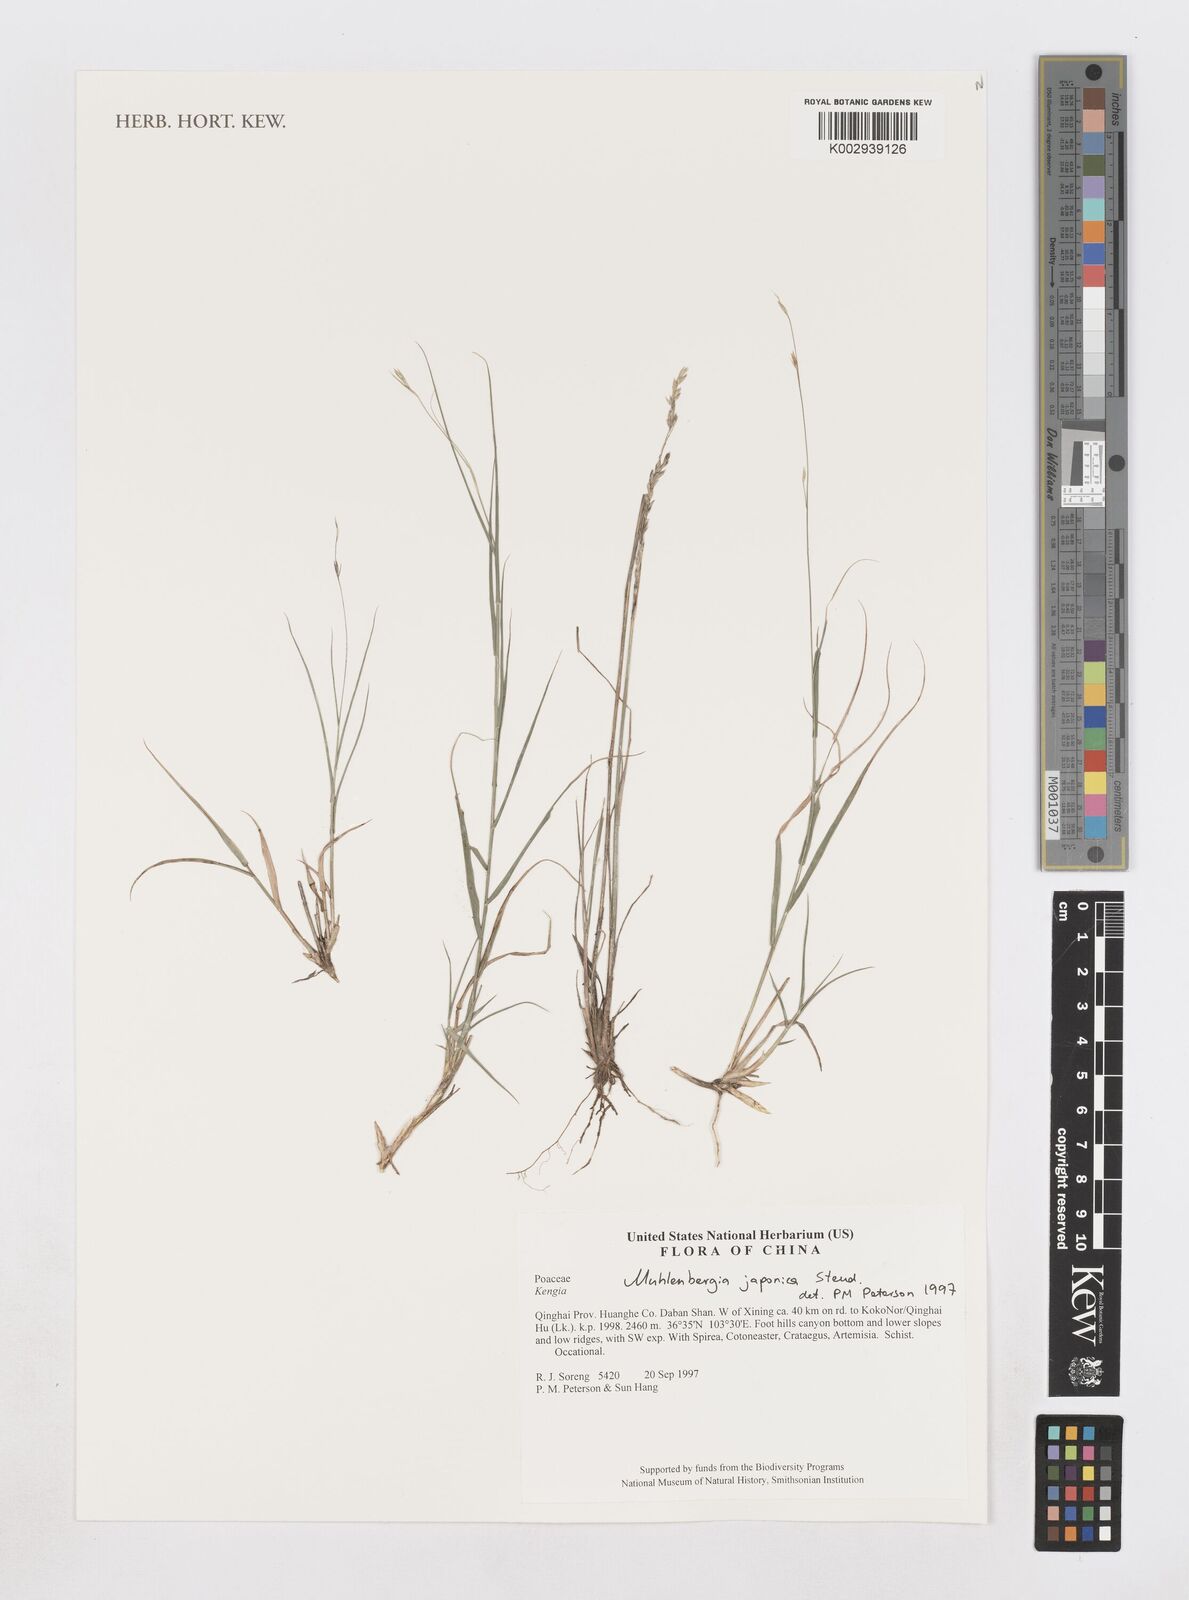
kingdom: Plantae
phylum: Tracheophyta
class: Liliopsida
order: Poales
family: Poaceae
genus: Muhlenbergia
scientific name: Muhlenbergia japonica
